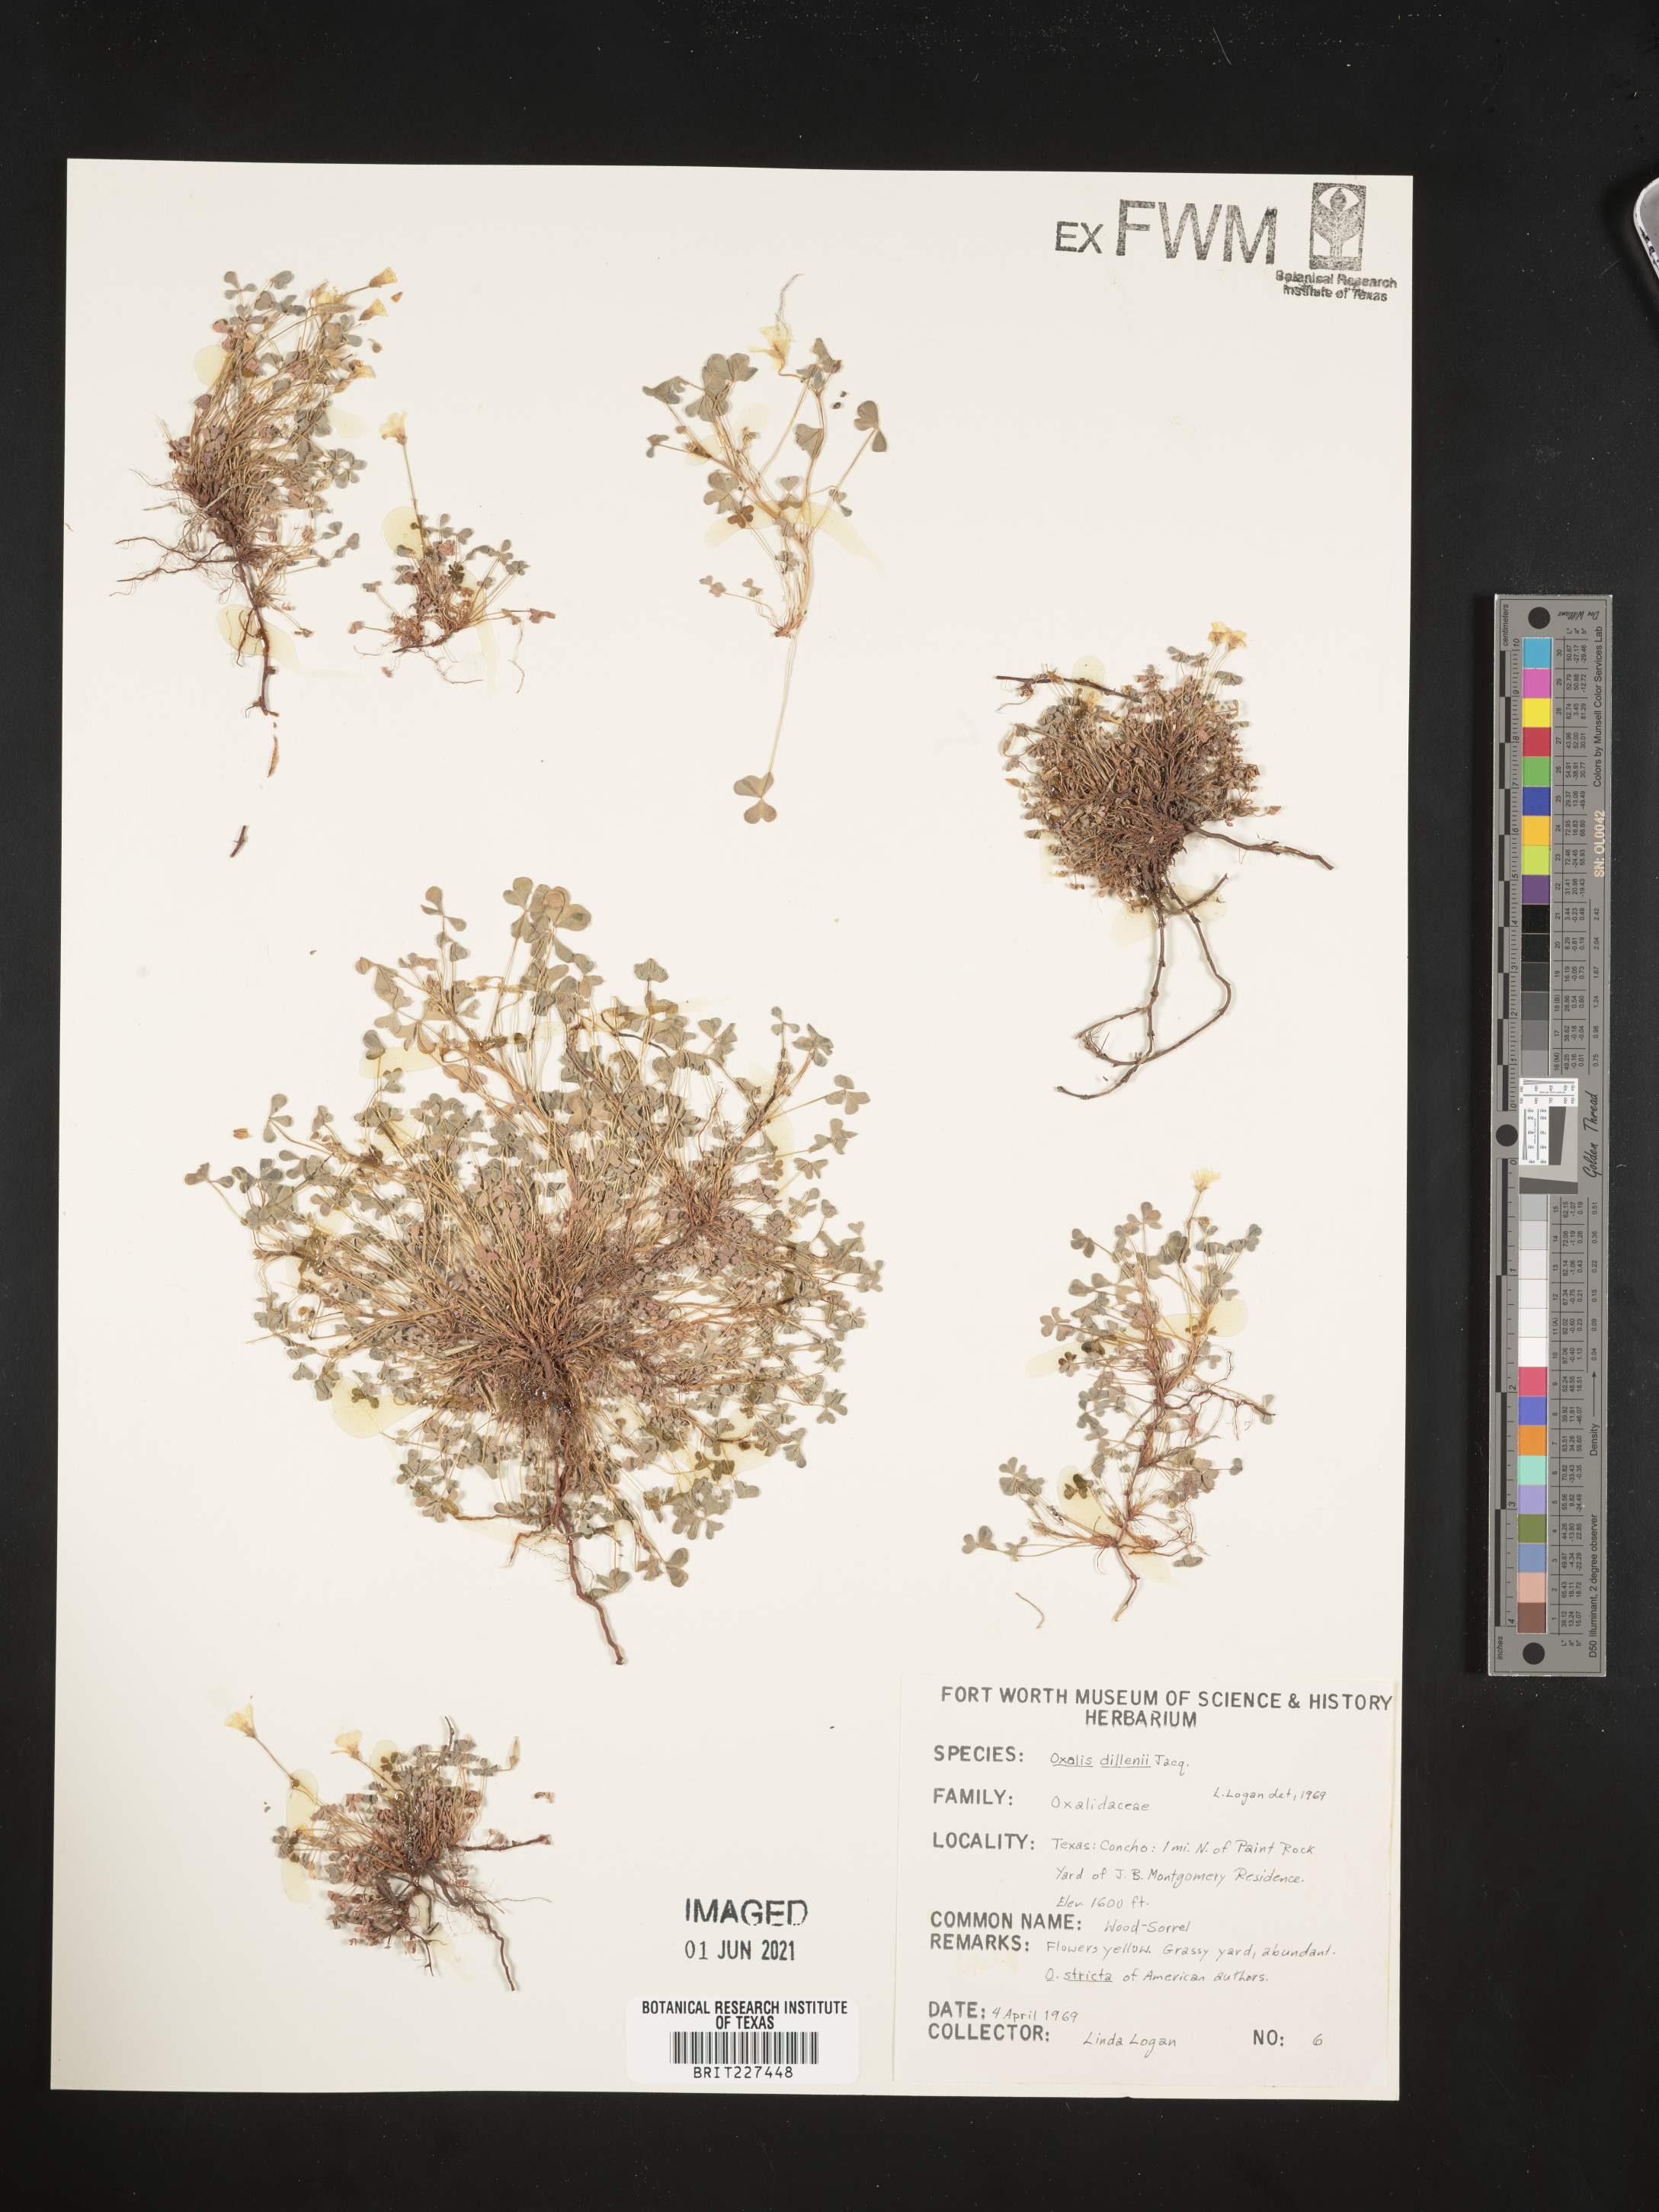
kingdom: Plantae
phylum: Tracheophyta
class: Magnoliopsida
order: Oxalidales
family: Oxalidaceae
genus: Oxalis
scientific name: Oxalis dillenii
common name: Sussex yellow-sorrel
